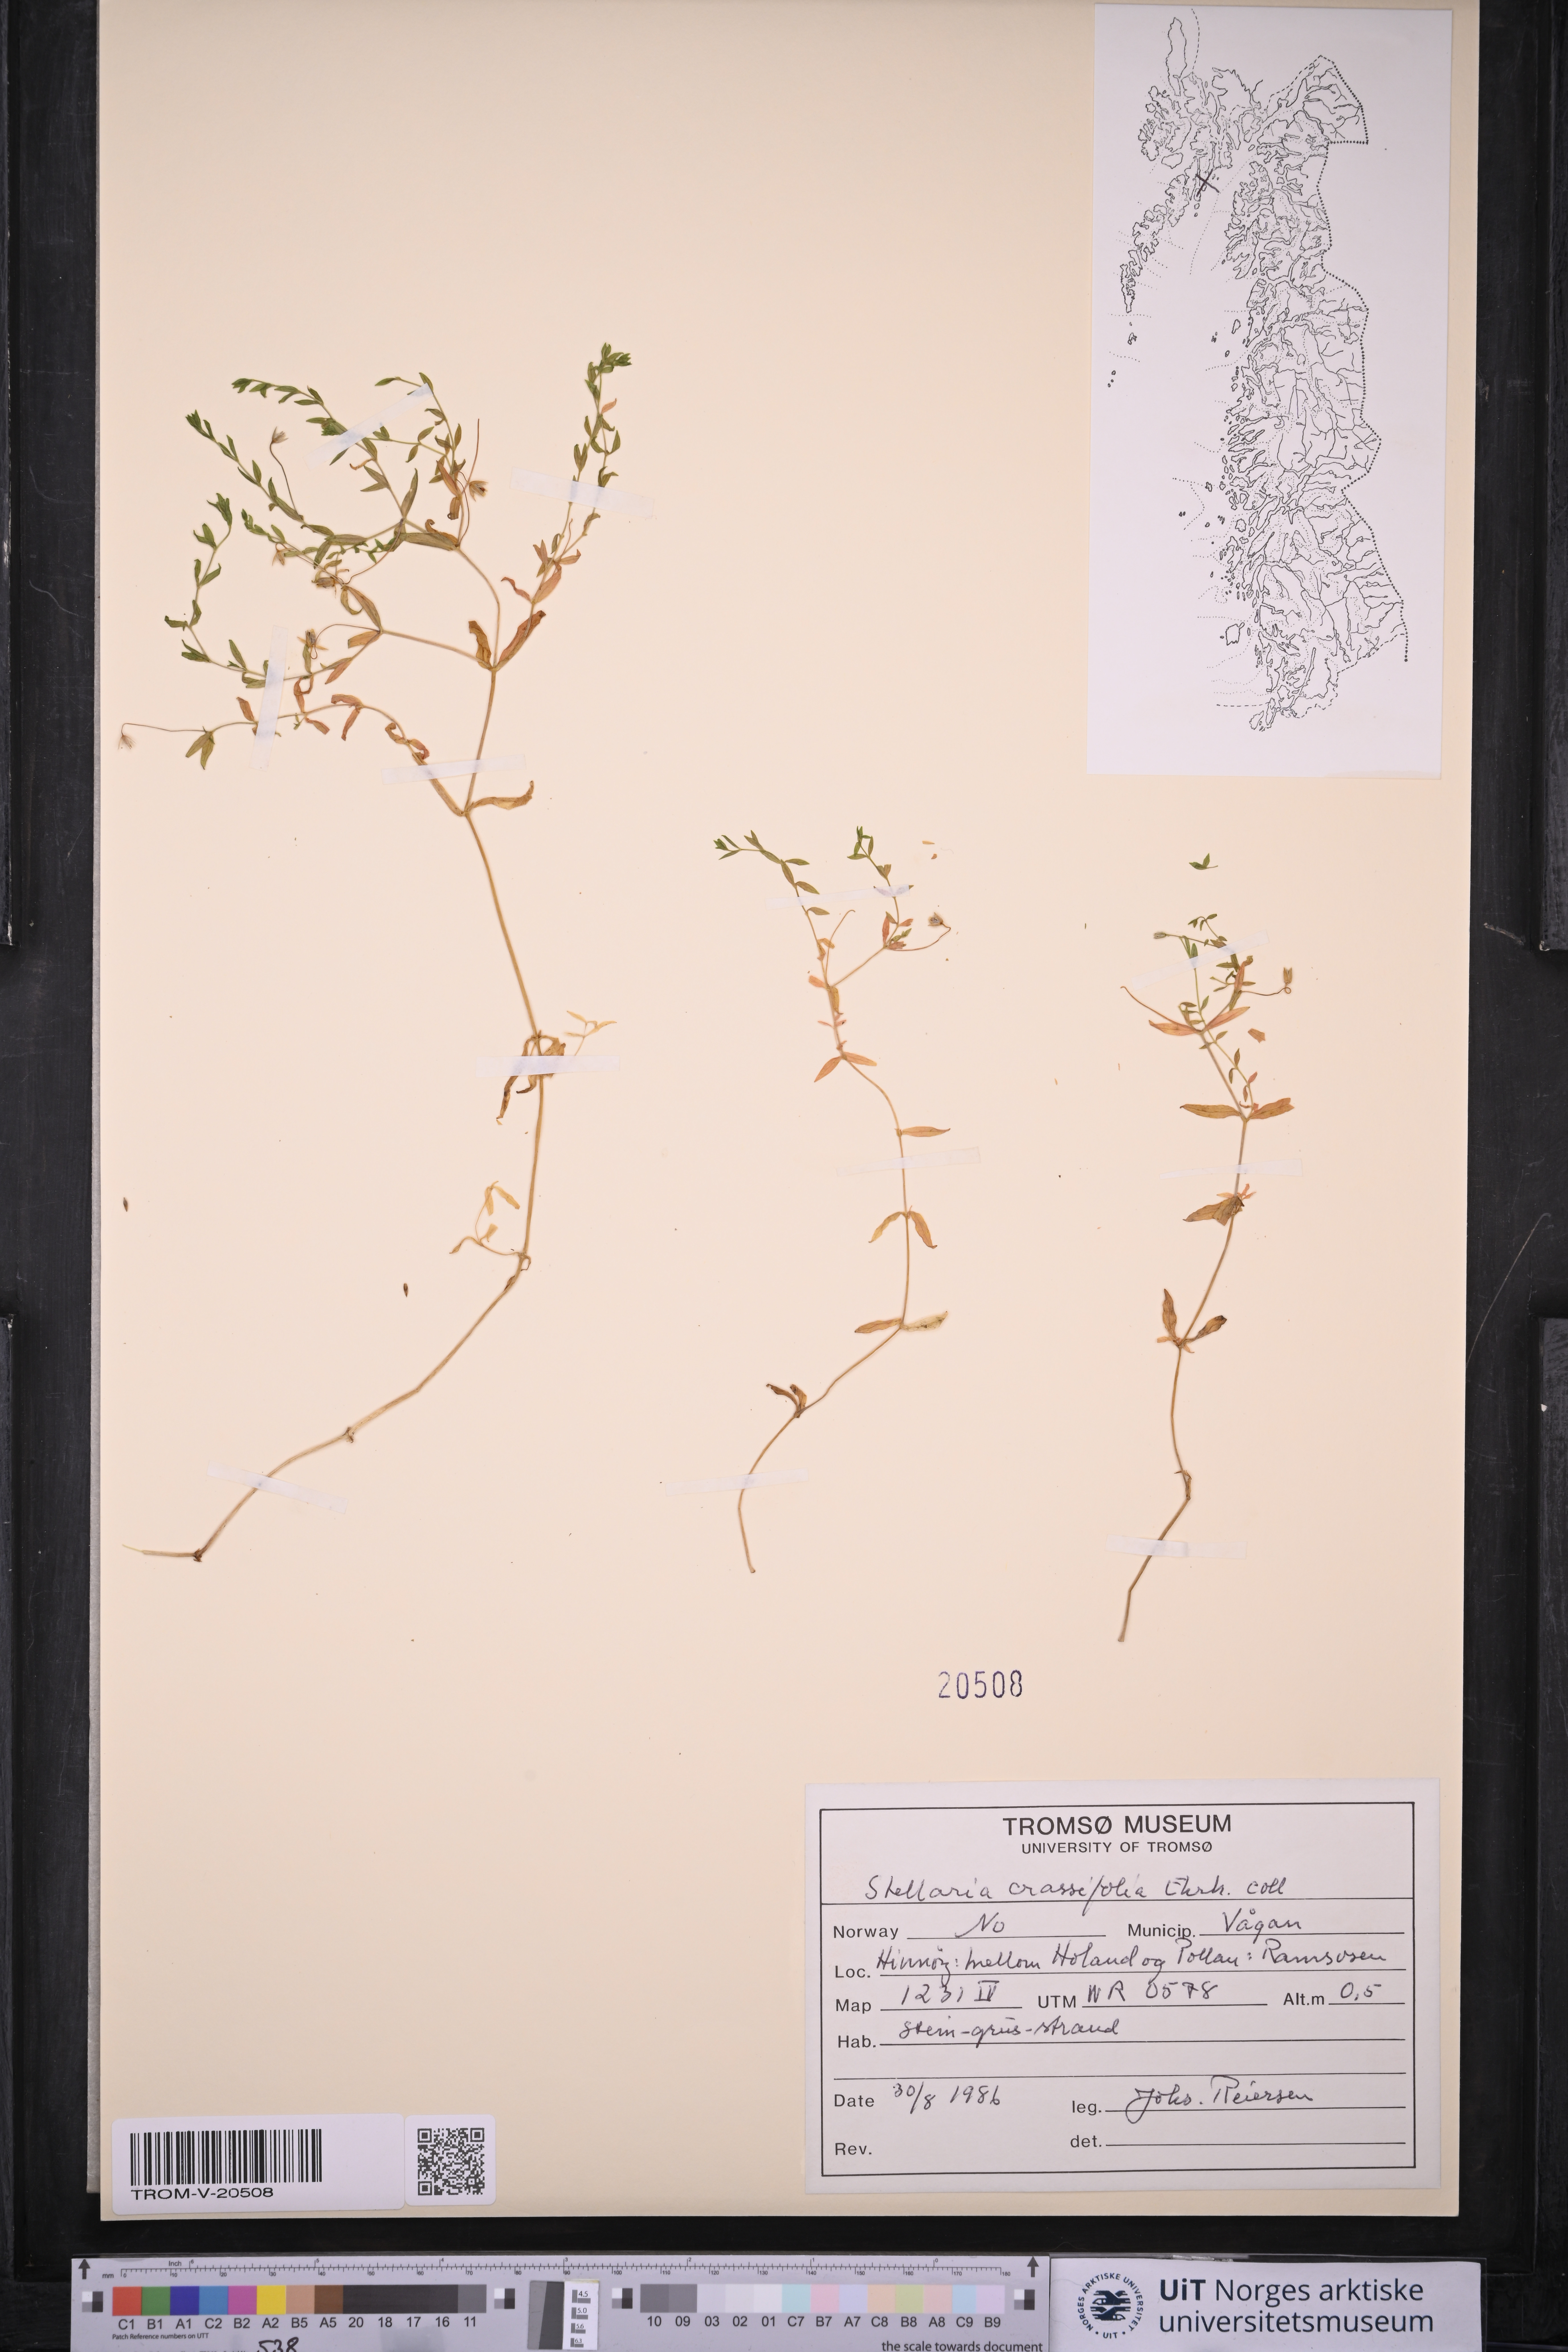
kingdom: Plantae
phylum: Tracheophyta
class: Magnoliopsida
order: Caryophyllales
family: Caryophyllaceae
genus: Stellaria
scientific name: Stellaria crassifolia
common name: Fleshy starwort
